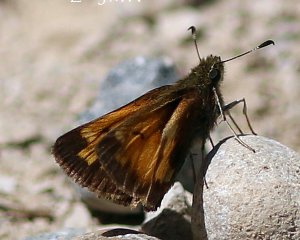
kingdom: Animalia
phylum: Arthropoda
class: Insecta
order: Lepidoptera
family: Hesperiidae
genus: Lon
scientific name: Lon hobomok
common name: Hobomok Skipper
